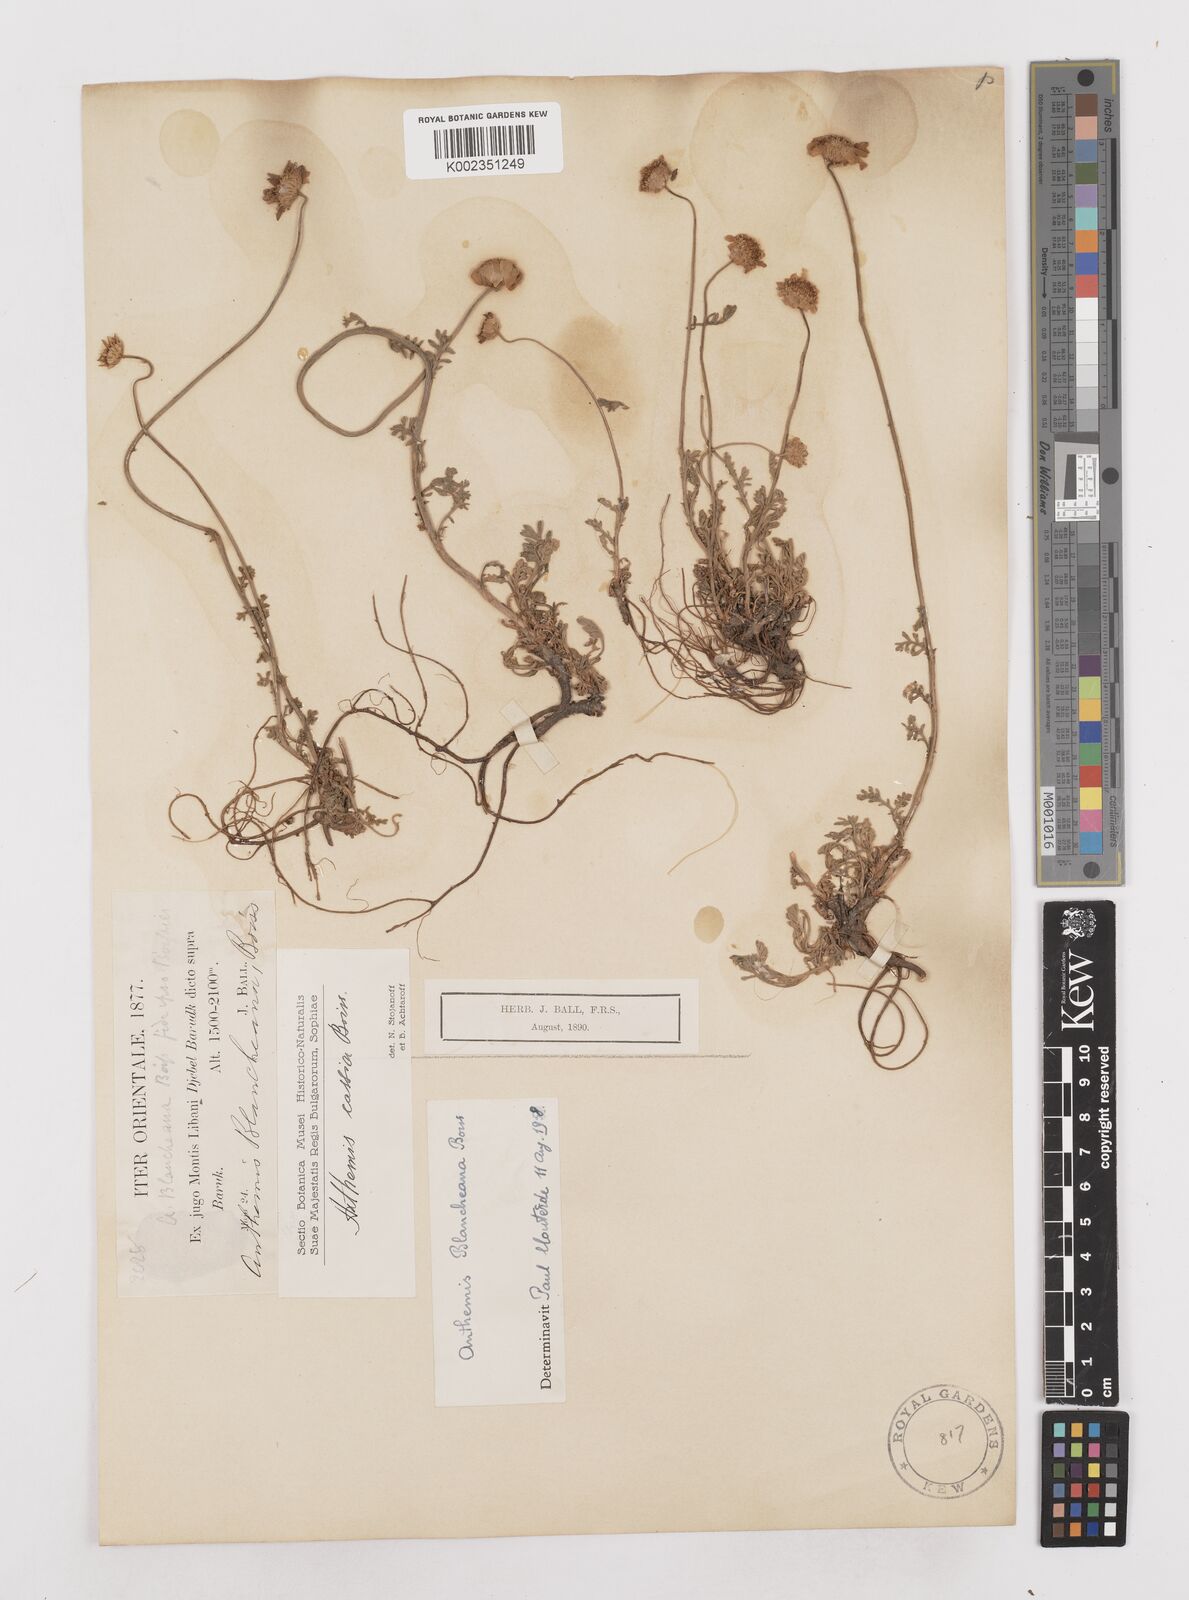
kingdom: Plantae
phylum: Tracheophyta
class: Magnoliopsida
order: Asterales
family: Asteraceae
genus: Anthemis
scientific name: Anthemis
